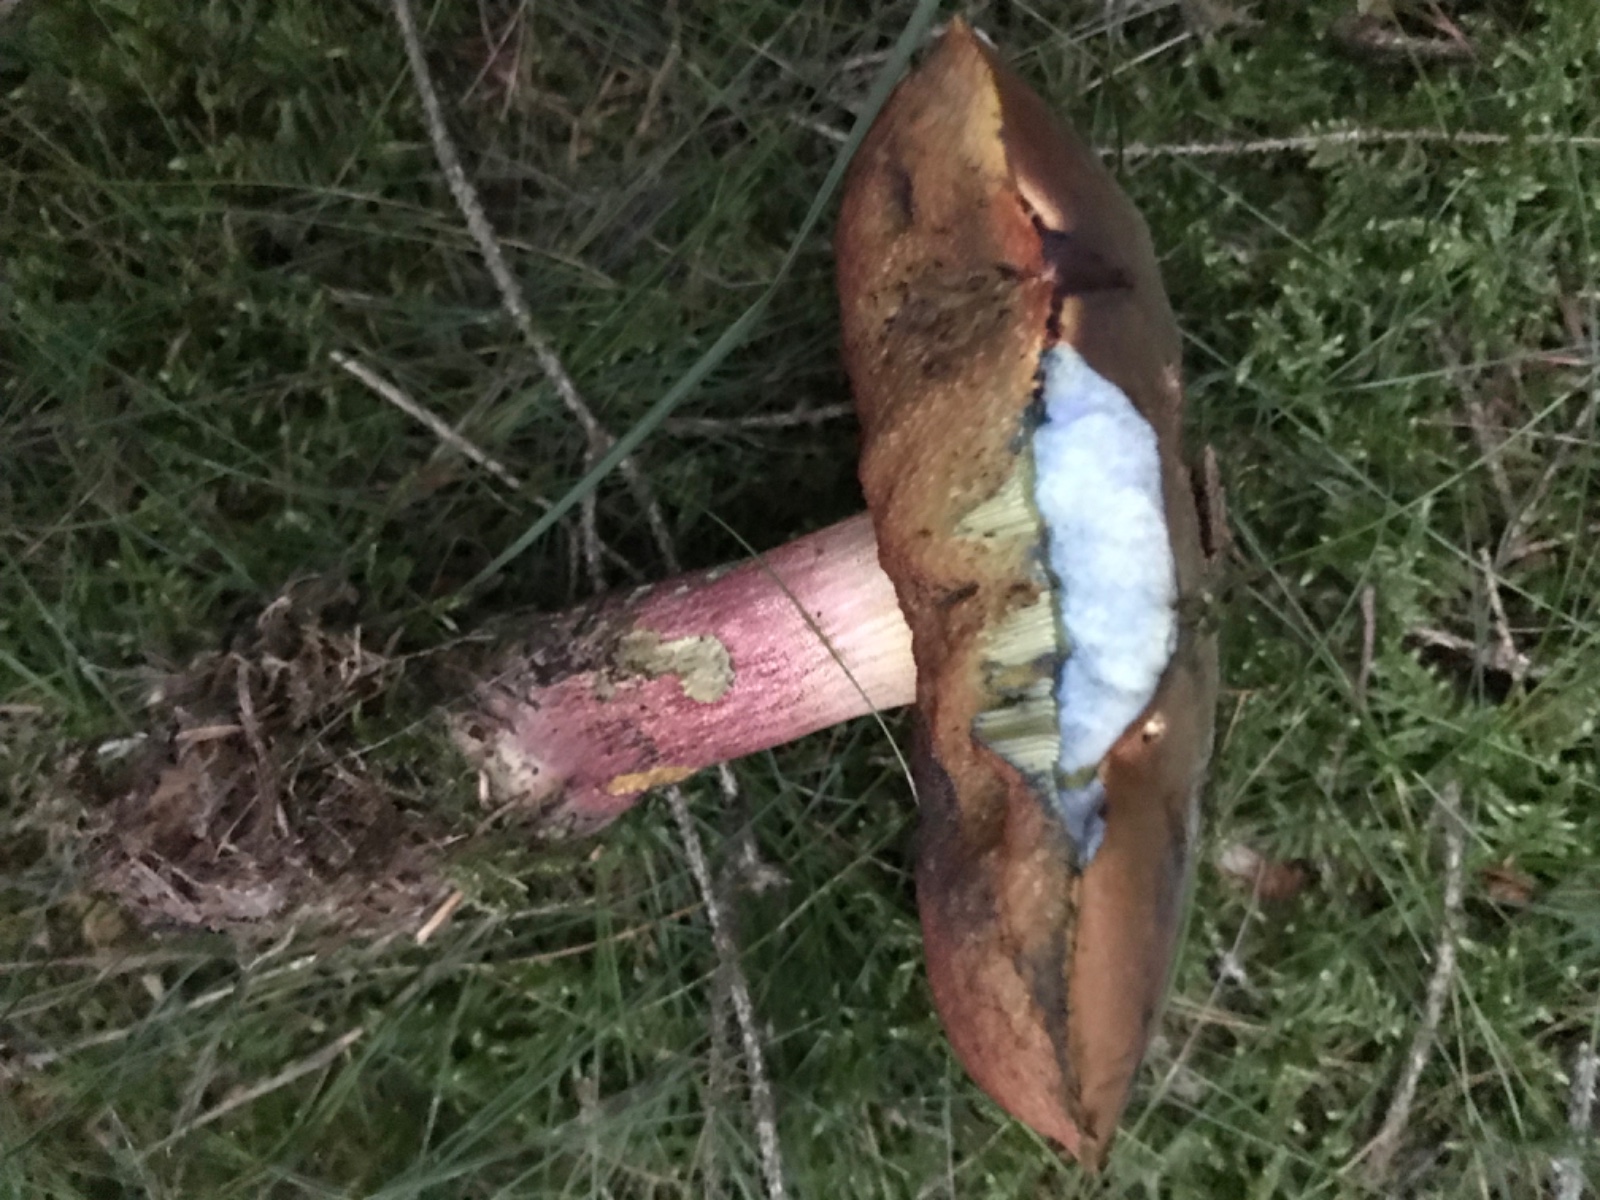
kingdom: Fungi
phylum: Basidiomycota
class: Agaricomycetes
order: Boletales
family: Boletaceae
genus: Neoboletus
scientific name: Neoboletus erythropus
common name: punktstokket indigorørhat
